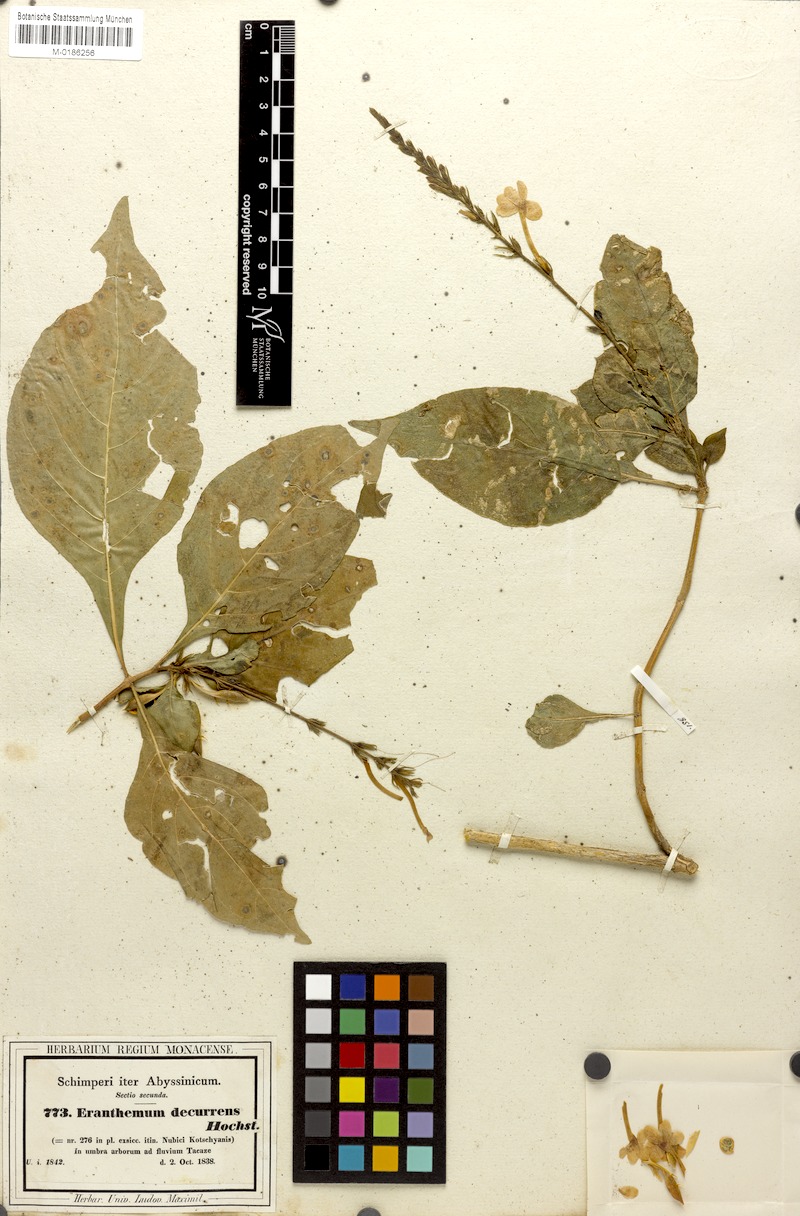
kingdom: Plantae
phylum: Tracheophyta
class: Magnoliopsida
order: Lamiales
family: Acanthaceae
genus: Ruspolia
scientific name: Ruspolia decurrens
